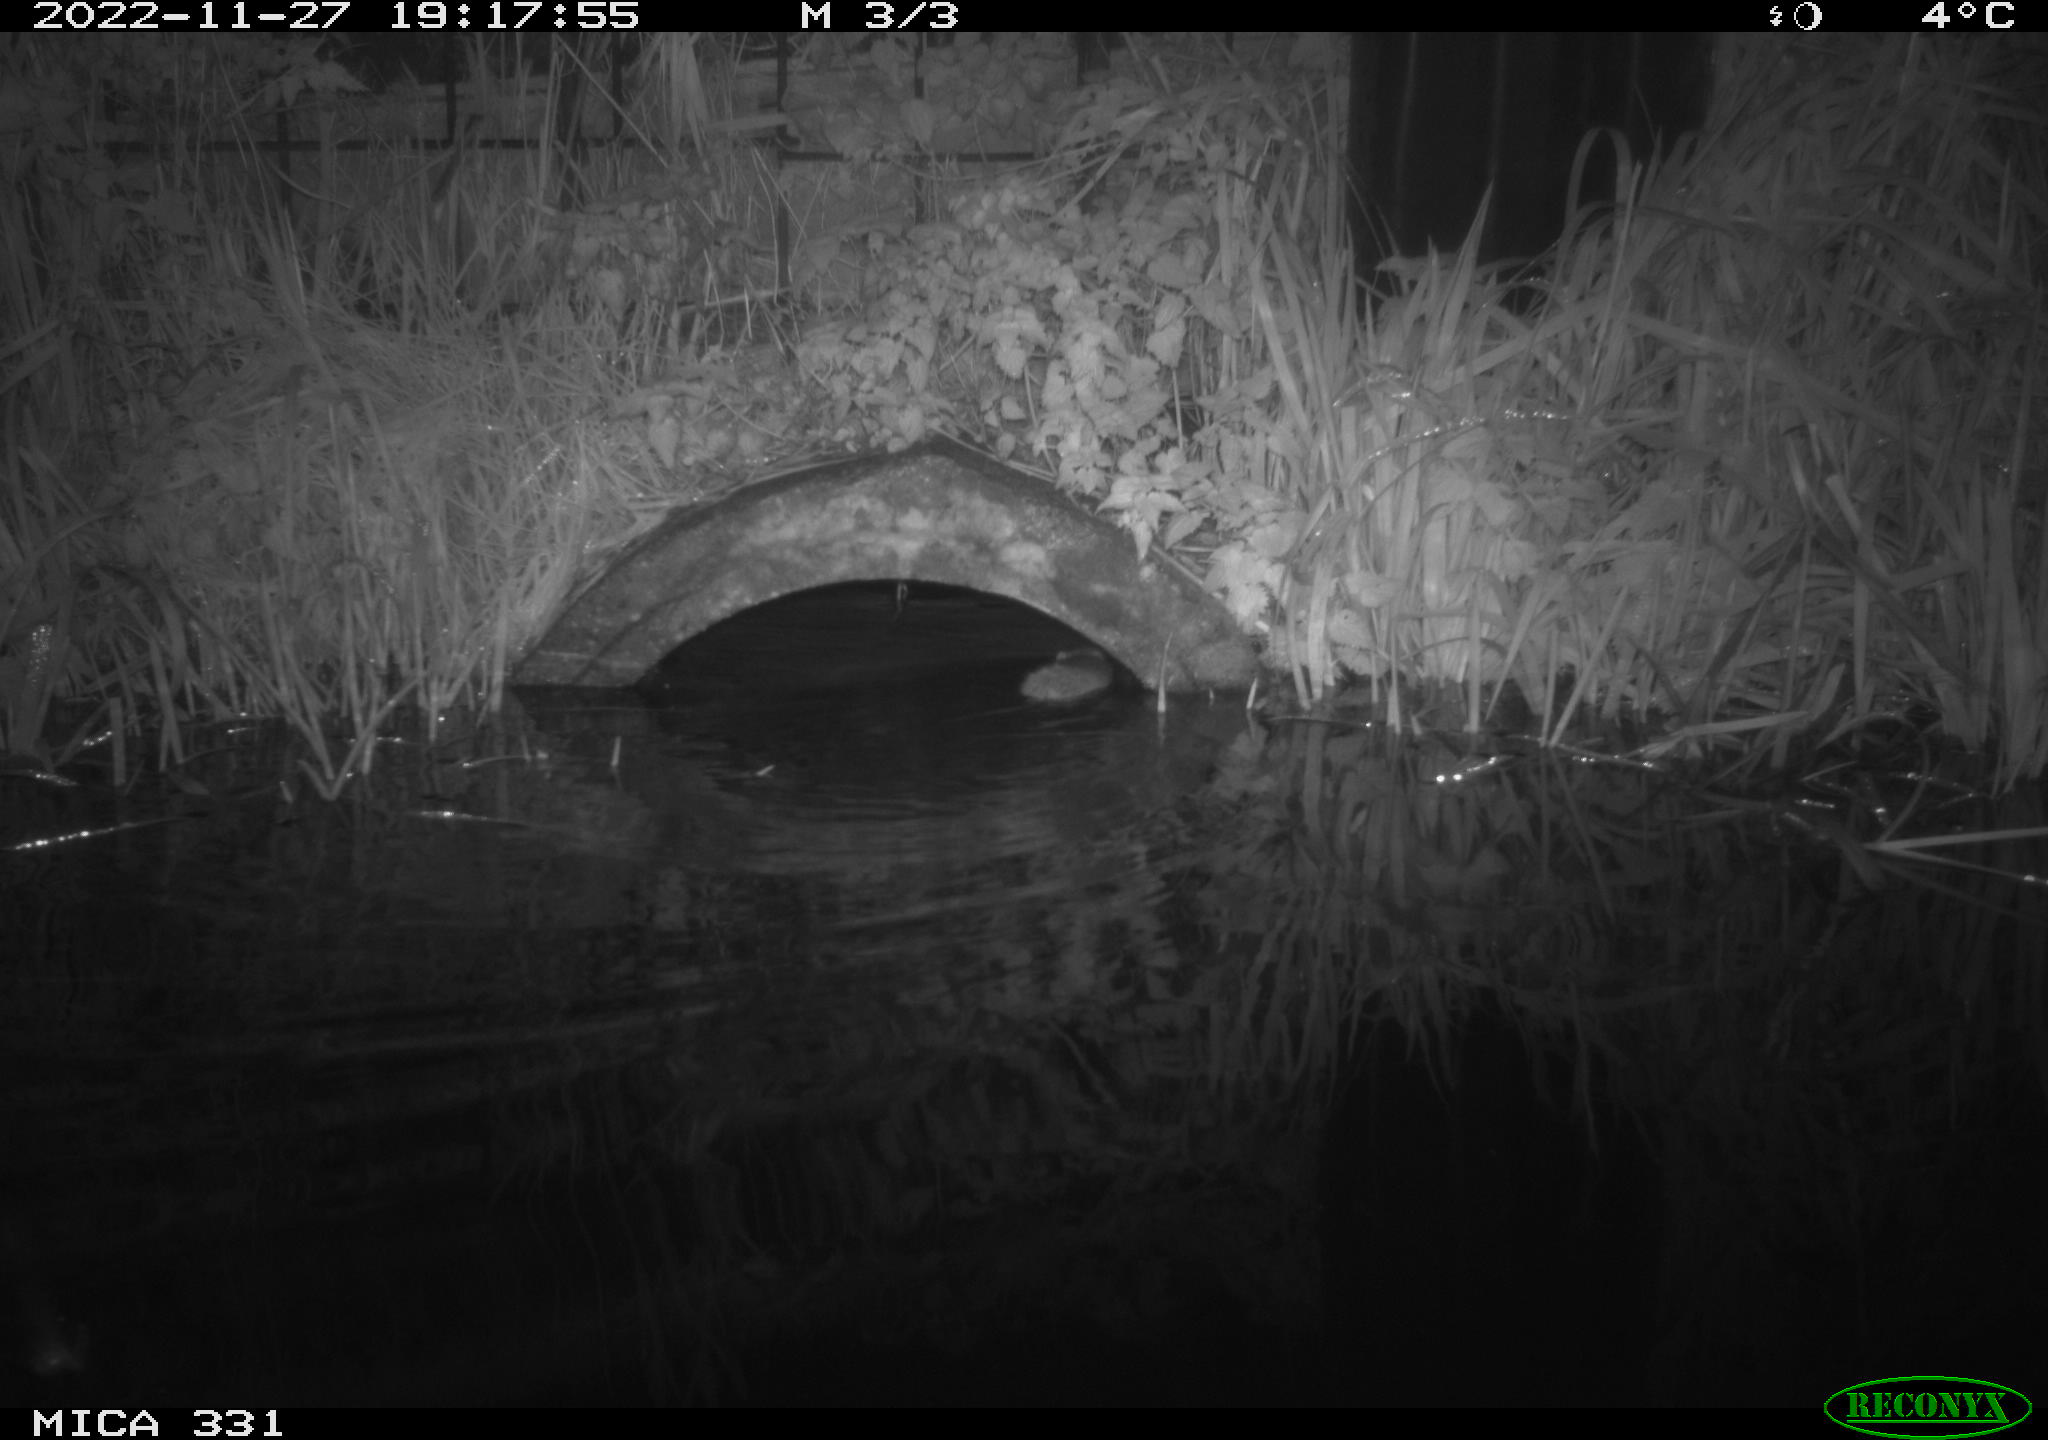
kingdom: Animalia
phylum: Chordata
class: Mammalia
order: Rodentia
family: Muridae
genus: Rattus
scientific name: Rattus norvegicus
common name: Brown rat
